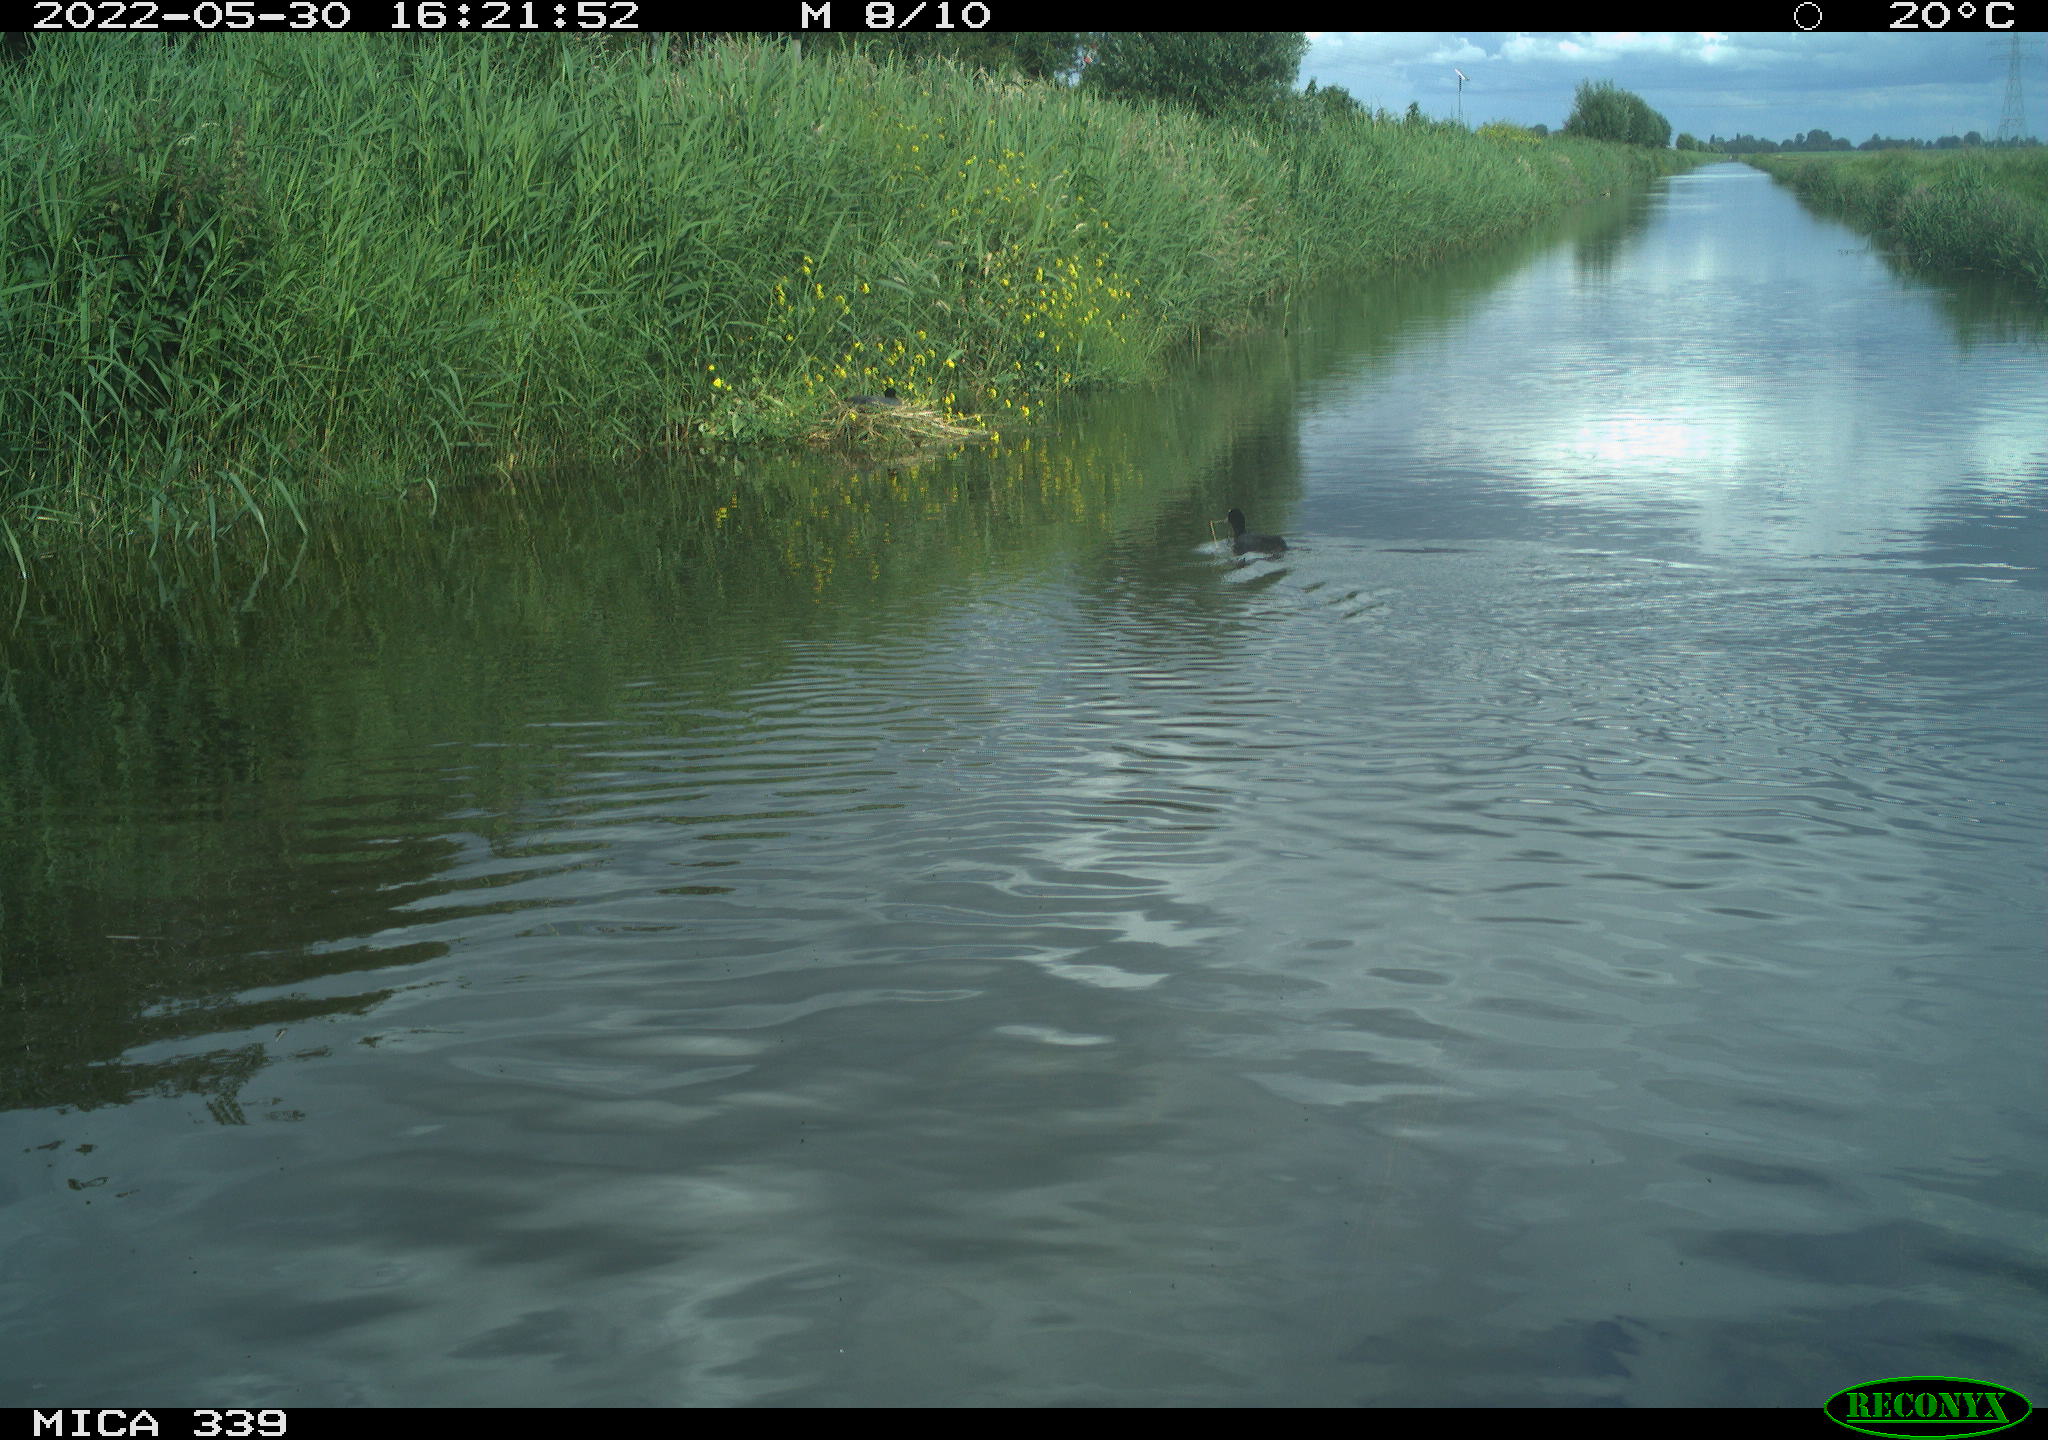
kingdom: Animalia
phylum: Chordata
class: Aves
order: Gruiformes
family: Rallidae
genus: Fulica
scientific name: Fulica atra
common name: Eurasian coot
